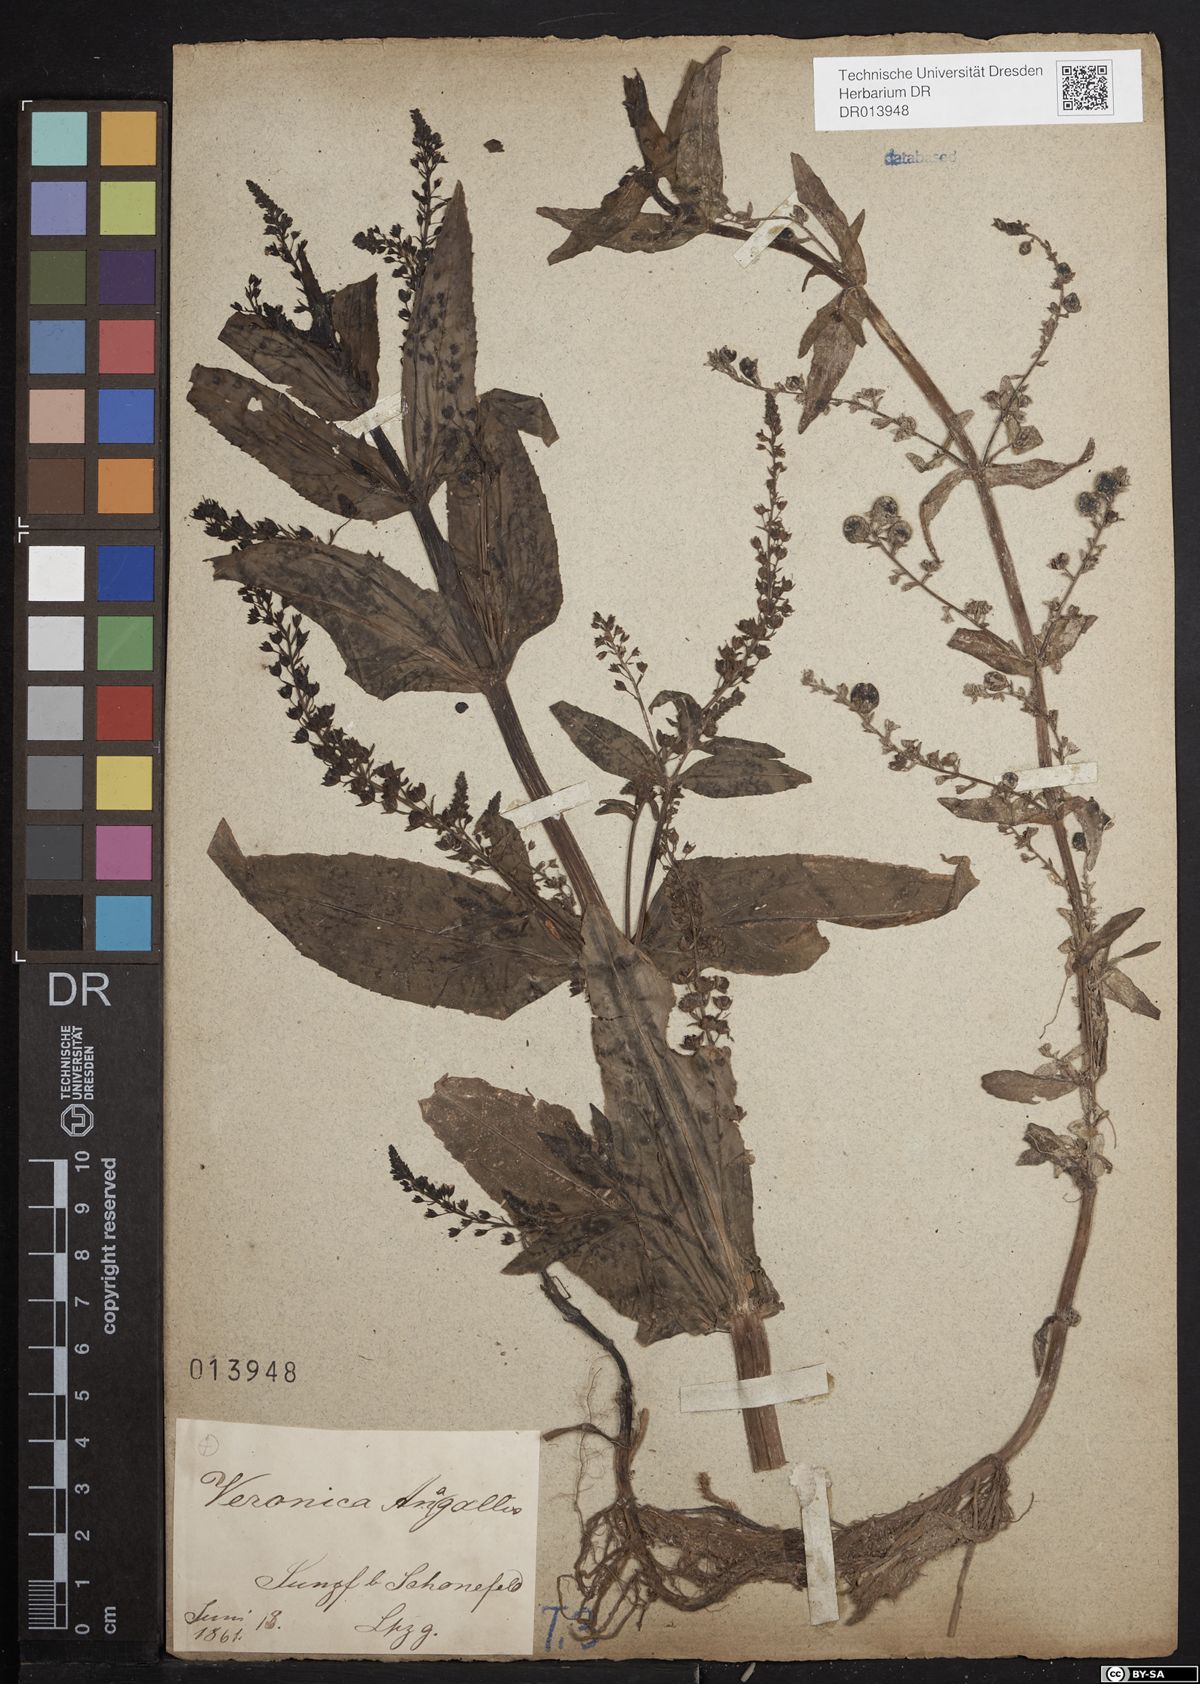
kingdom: Plantae
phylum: Tracheophyta
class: Magnoliopsida
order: Lamiales
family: Plantaginaceae
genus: Veronica
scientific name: Veronica anagallis-aquatica
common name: Water speedwell
